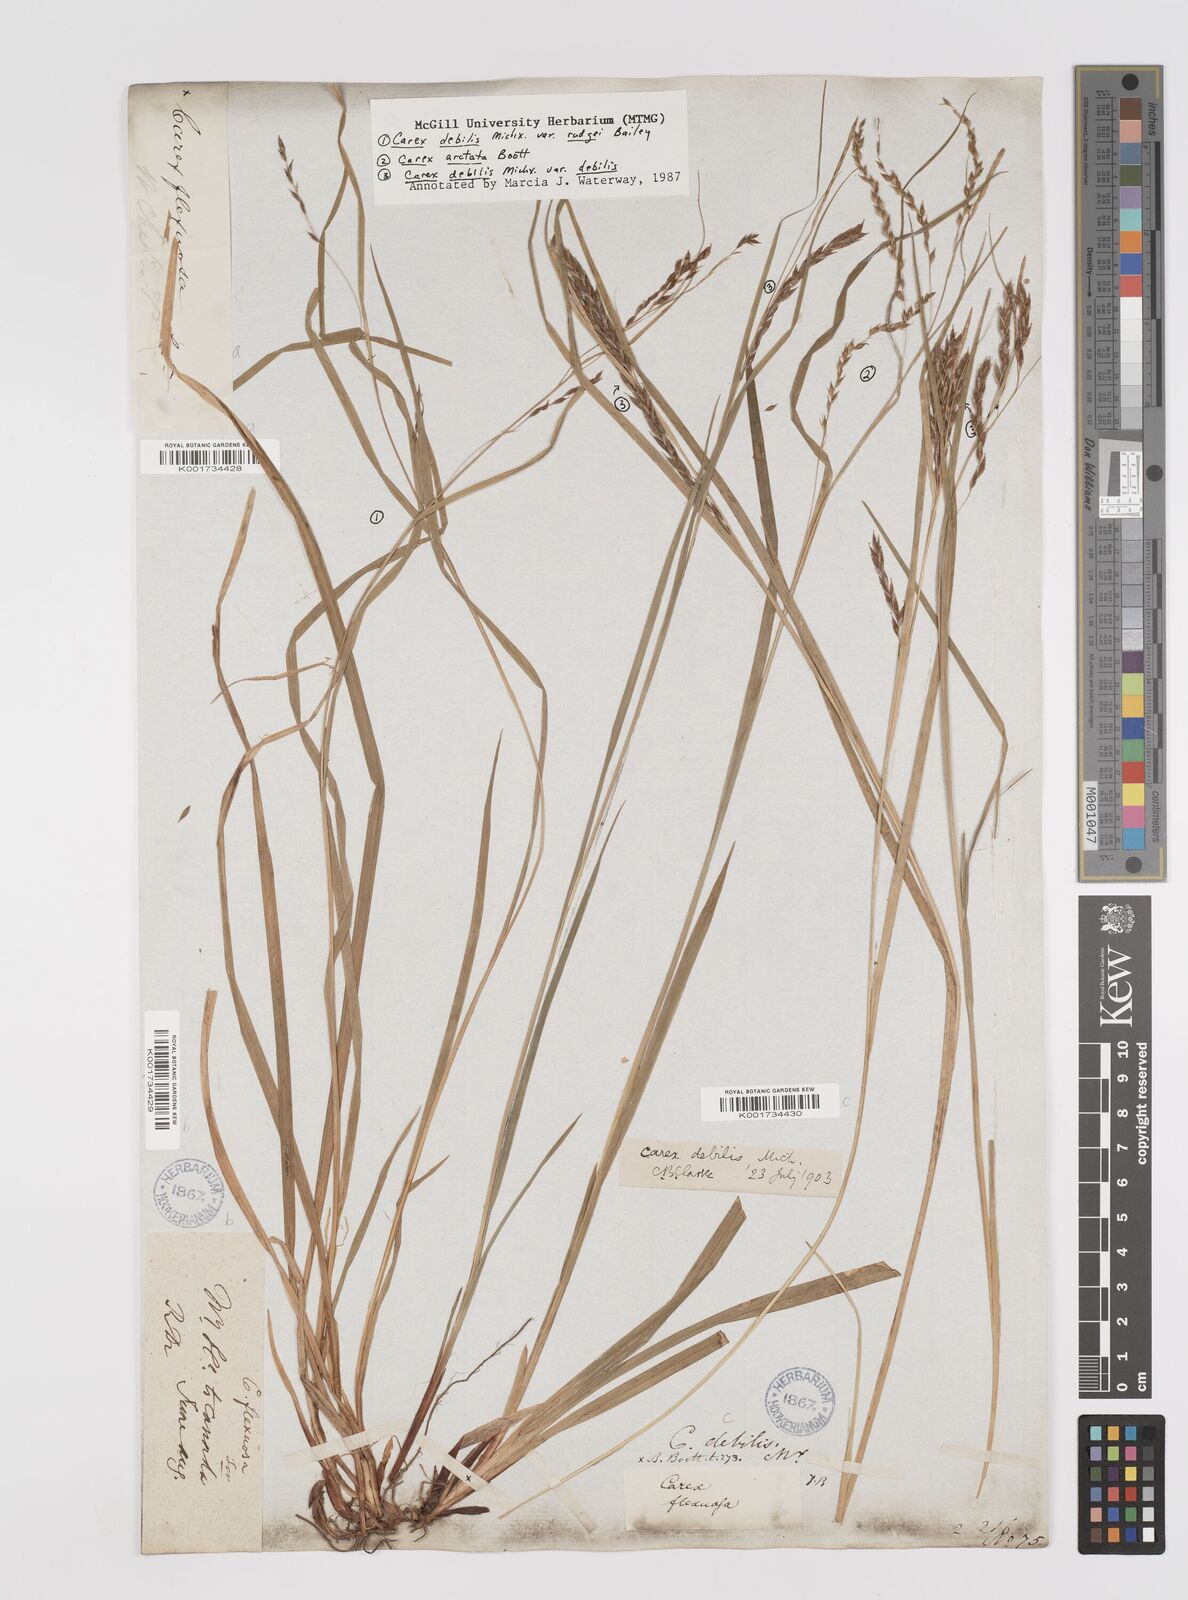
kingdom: Plantae
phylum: Tracheophyta
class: Liliopsida
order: Poales
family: Cyperaceae
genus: Carex
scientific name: Carex debilis
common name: White-edge sedge
